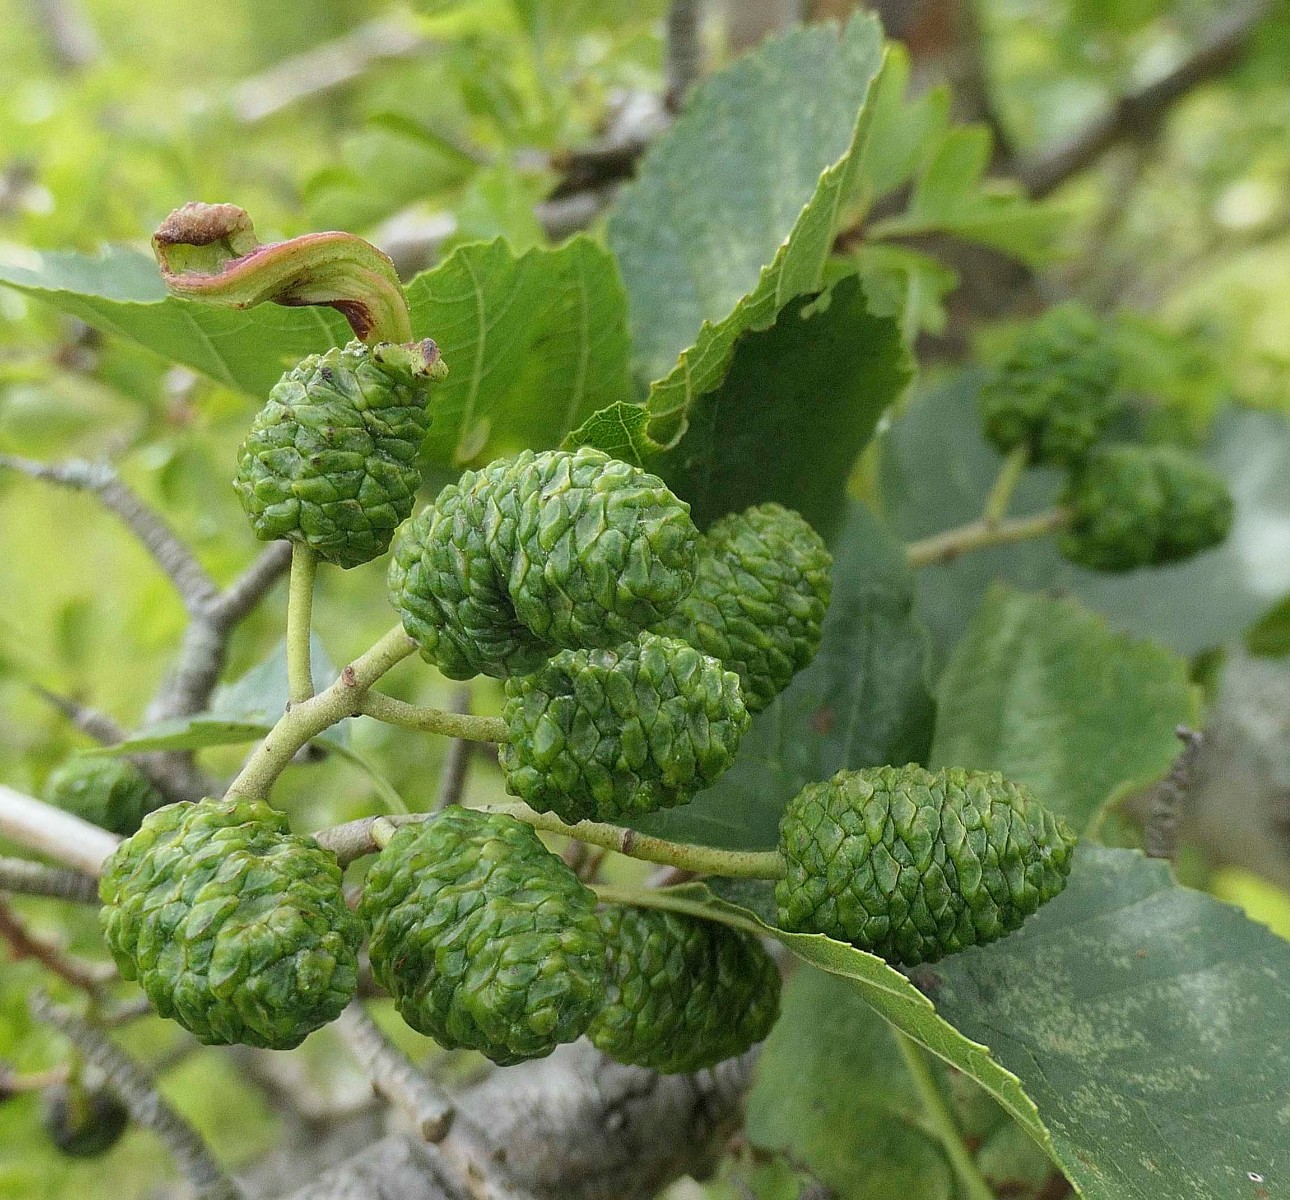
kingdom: Fungi
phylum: Ascomycota
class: Taphrinomycetes
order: Taphrinales
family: Taphrinaceae
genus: Taphrina
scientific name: Taphrina alni
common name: Alder tongue
